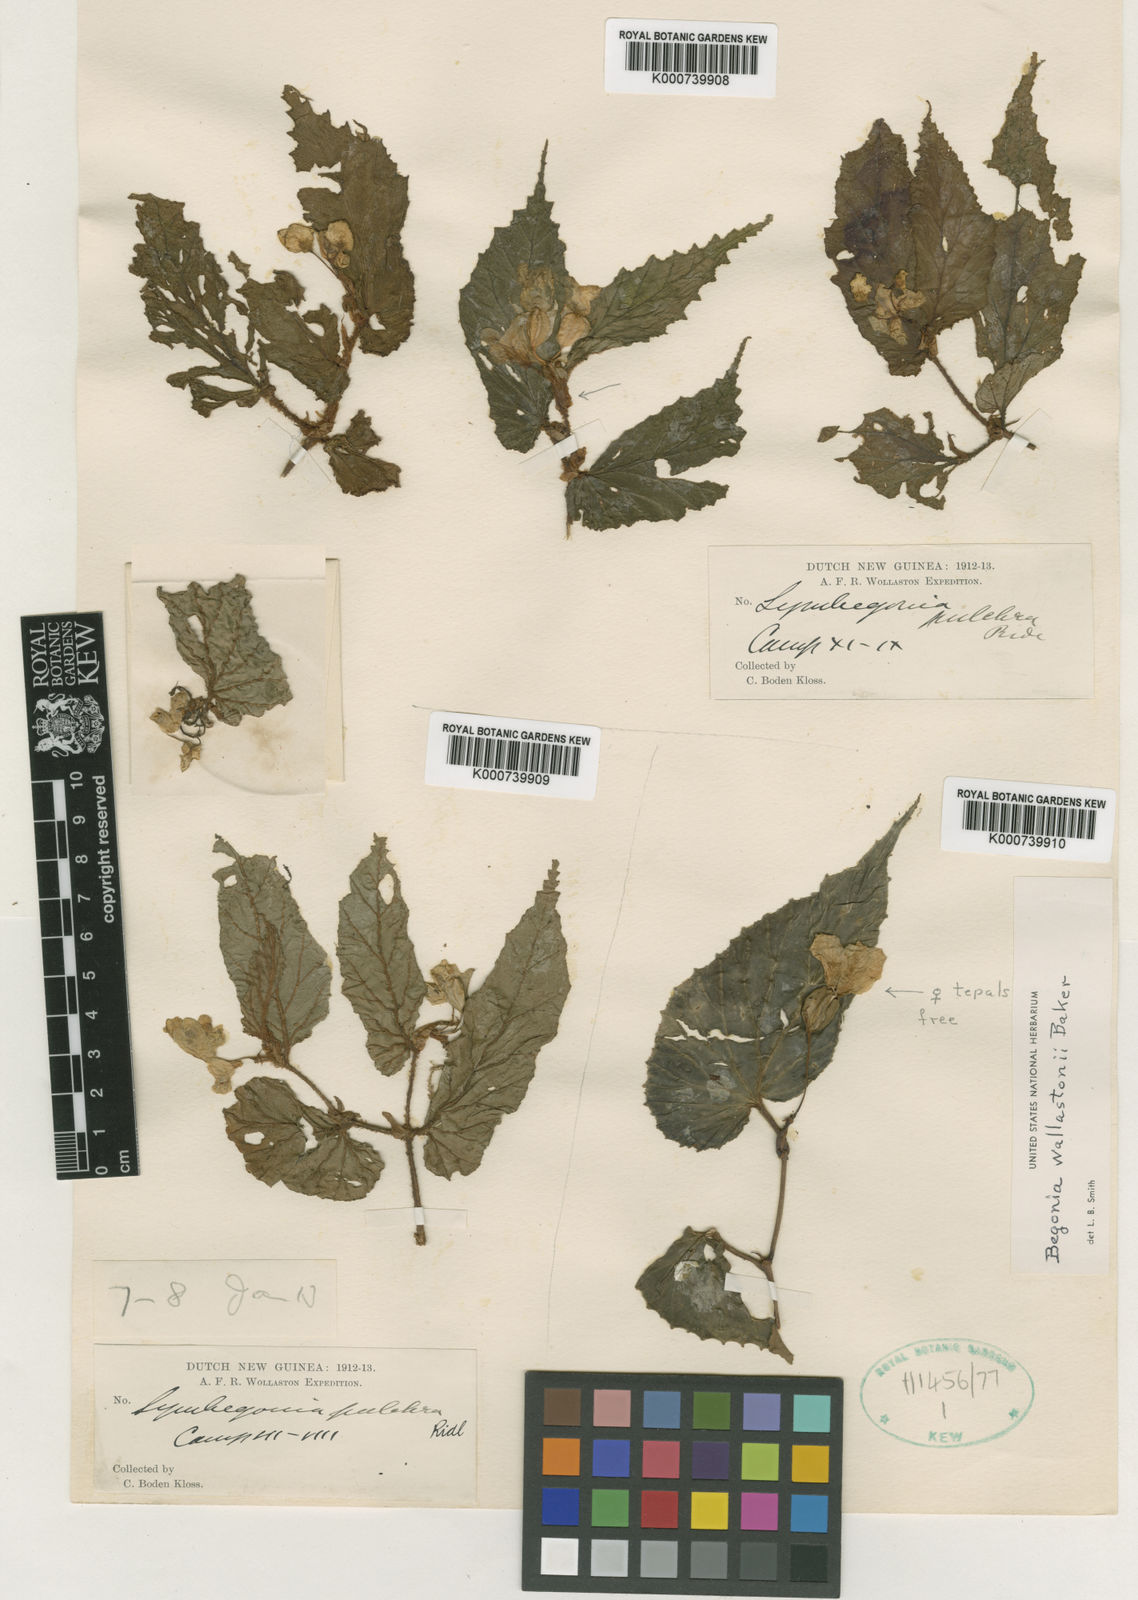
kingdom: Plantae
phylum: Tracheophyta
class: Magnoliopsida
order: Cucurbitales
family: Begoniaceae
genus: Begonia
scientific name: Begonia pulchra
